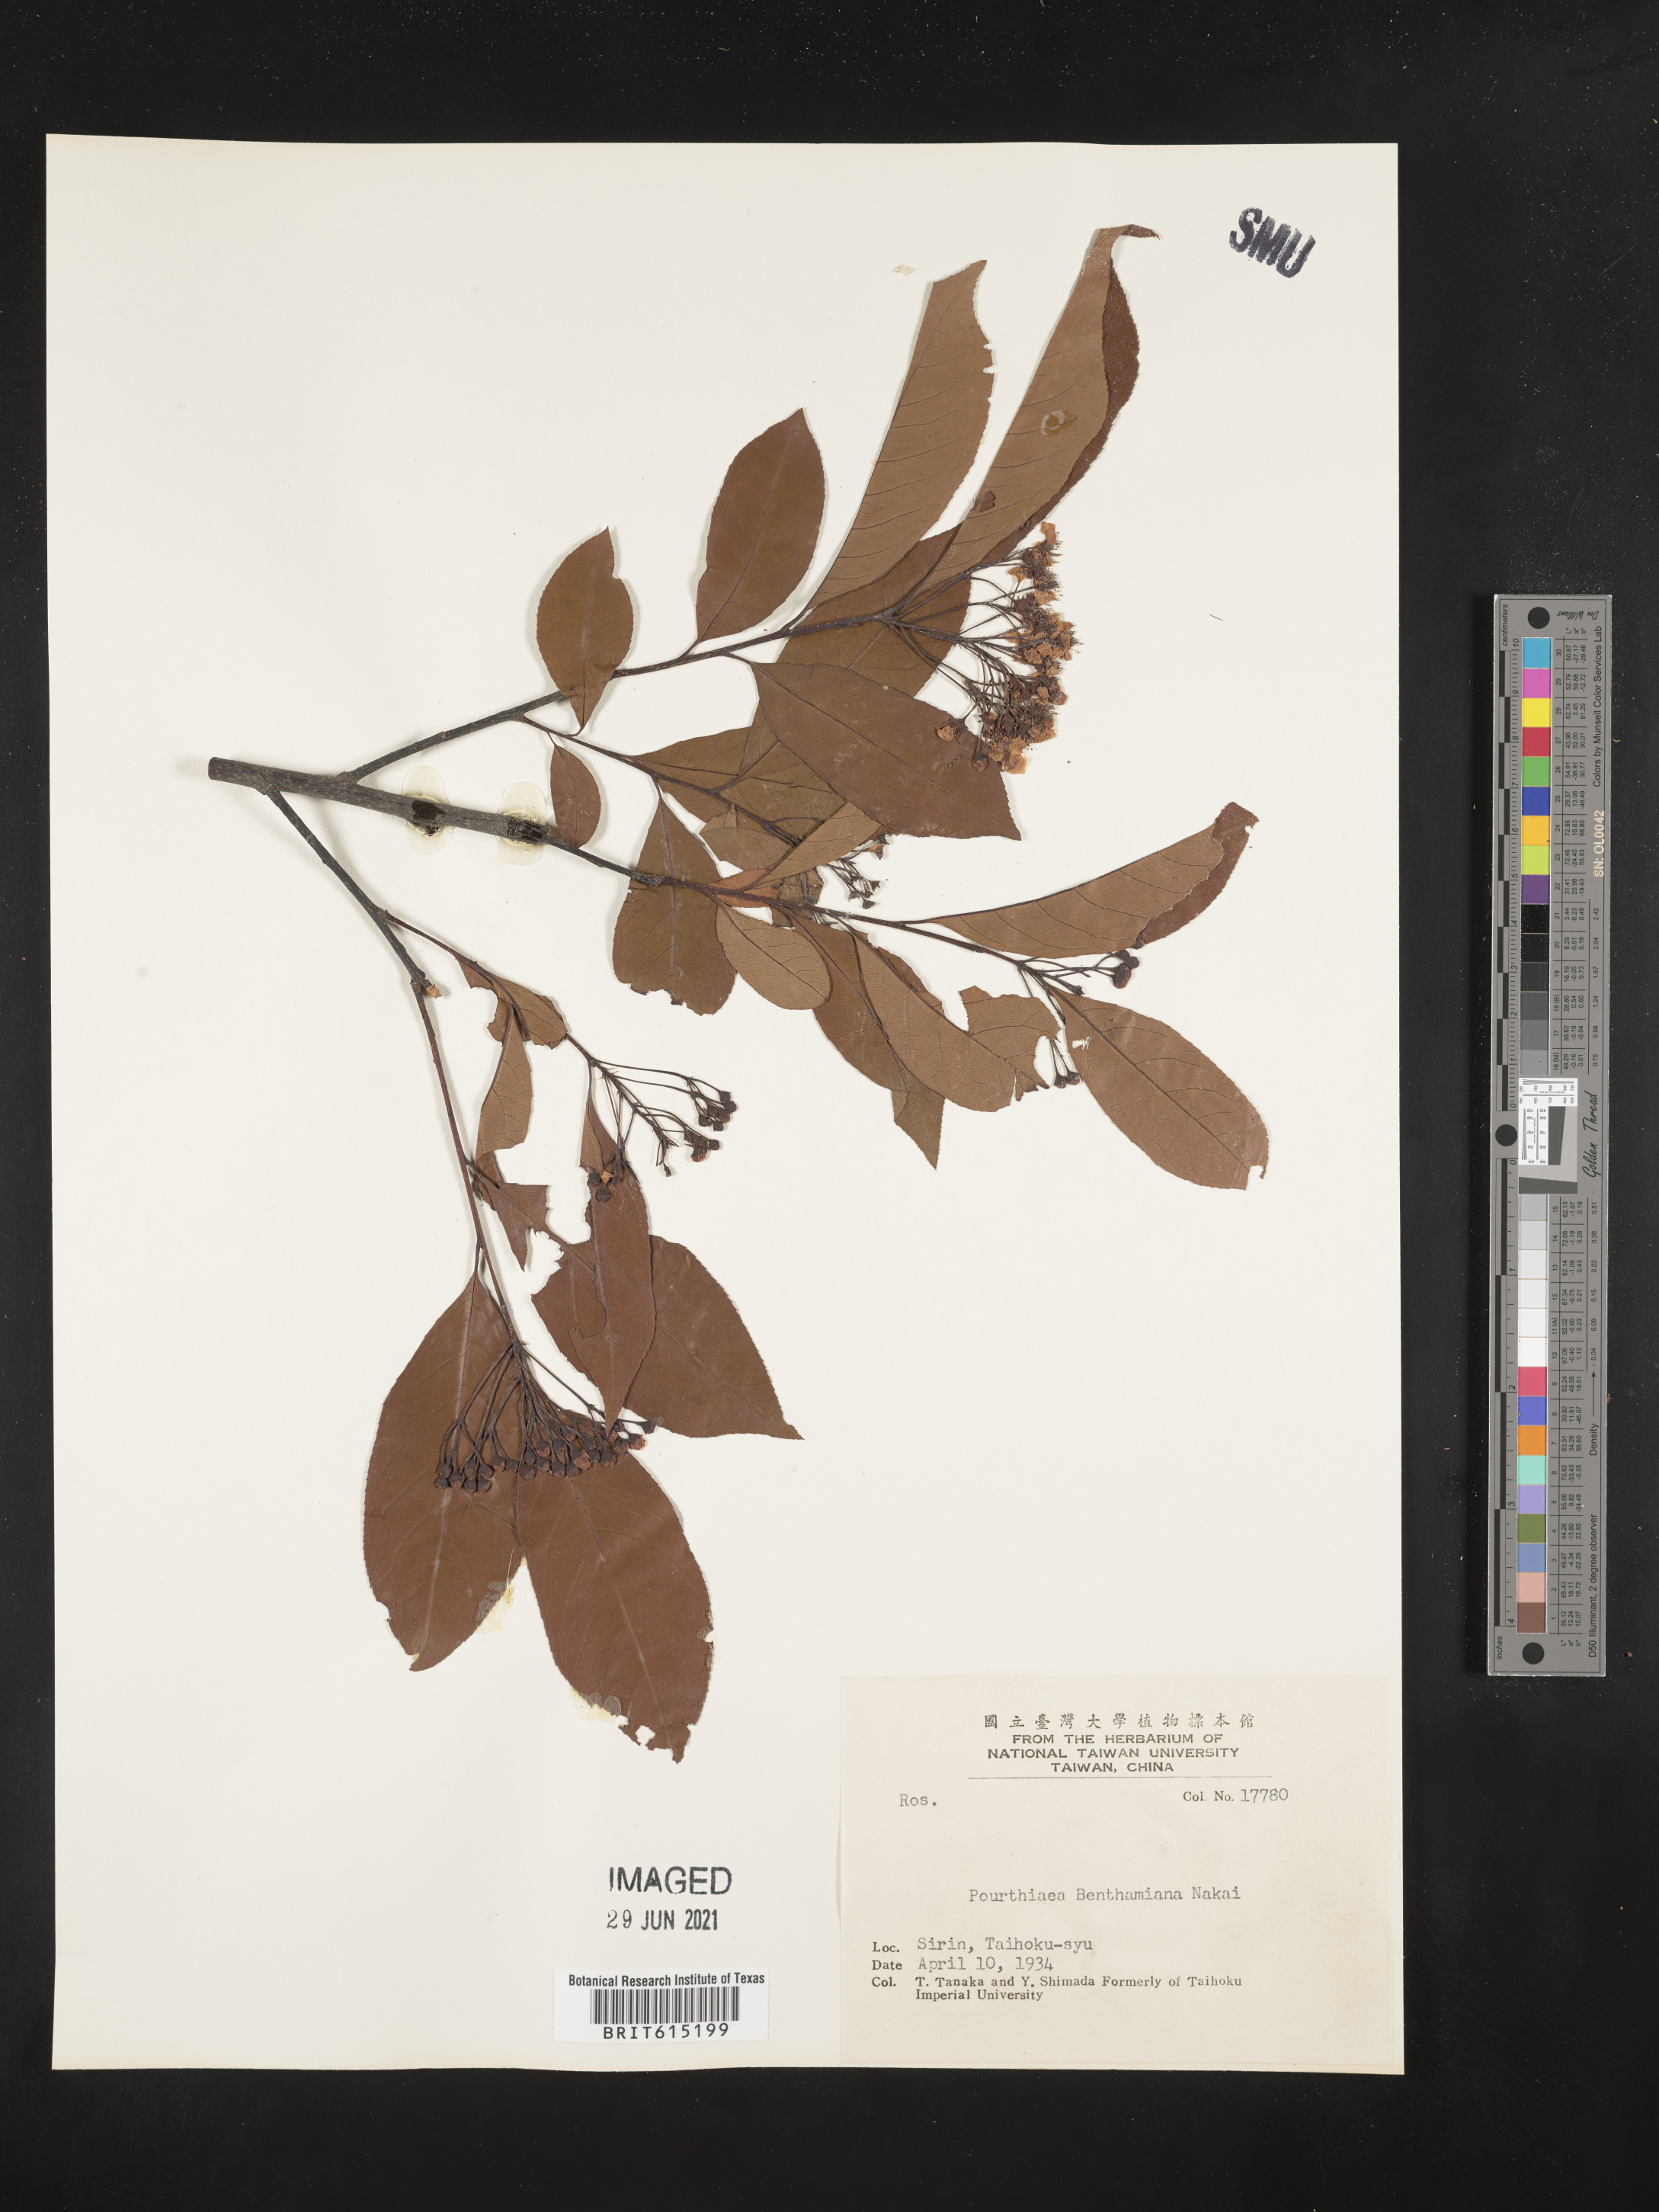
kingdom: Plantae
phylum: Tracheophyta
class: Magnoliopsida
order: Rosales
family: Rosaceae
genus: Photinia
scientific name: Photinia serratifolia
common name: Taiwanese photinia
